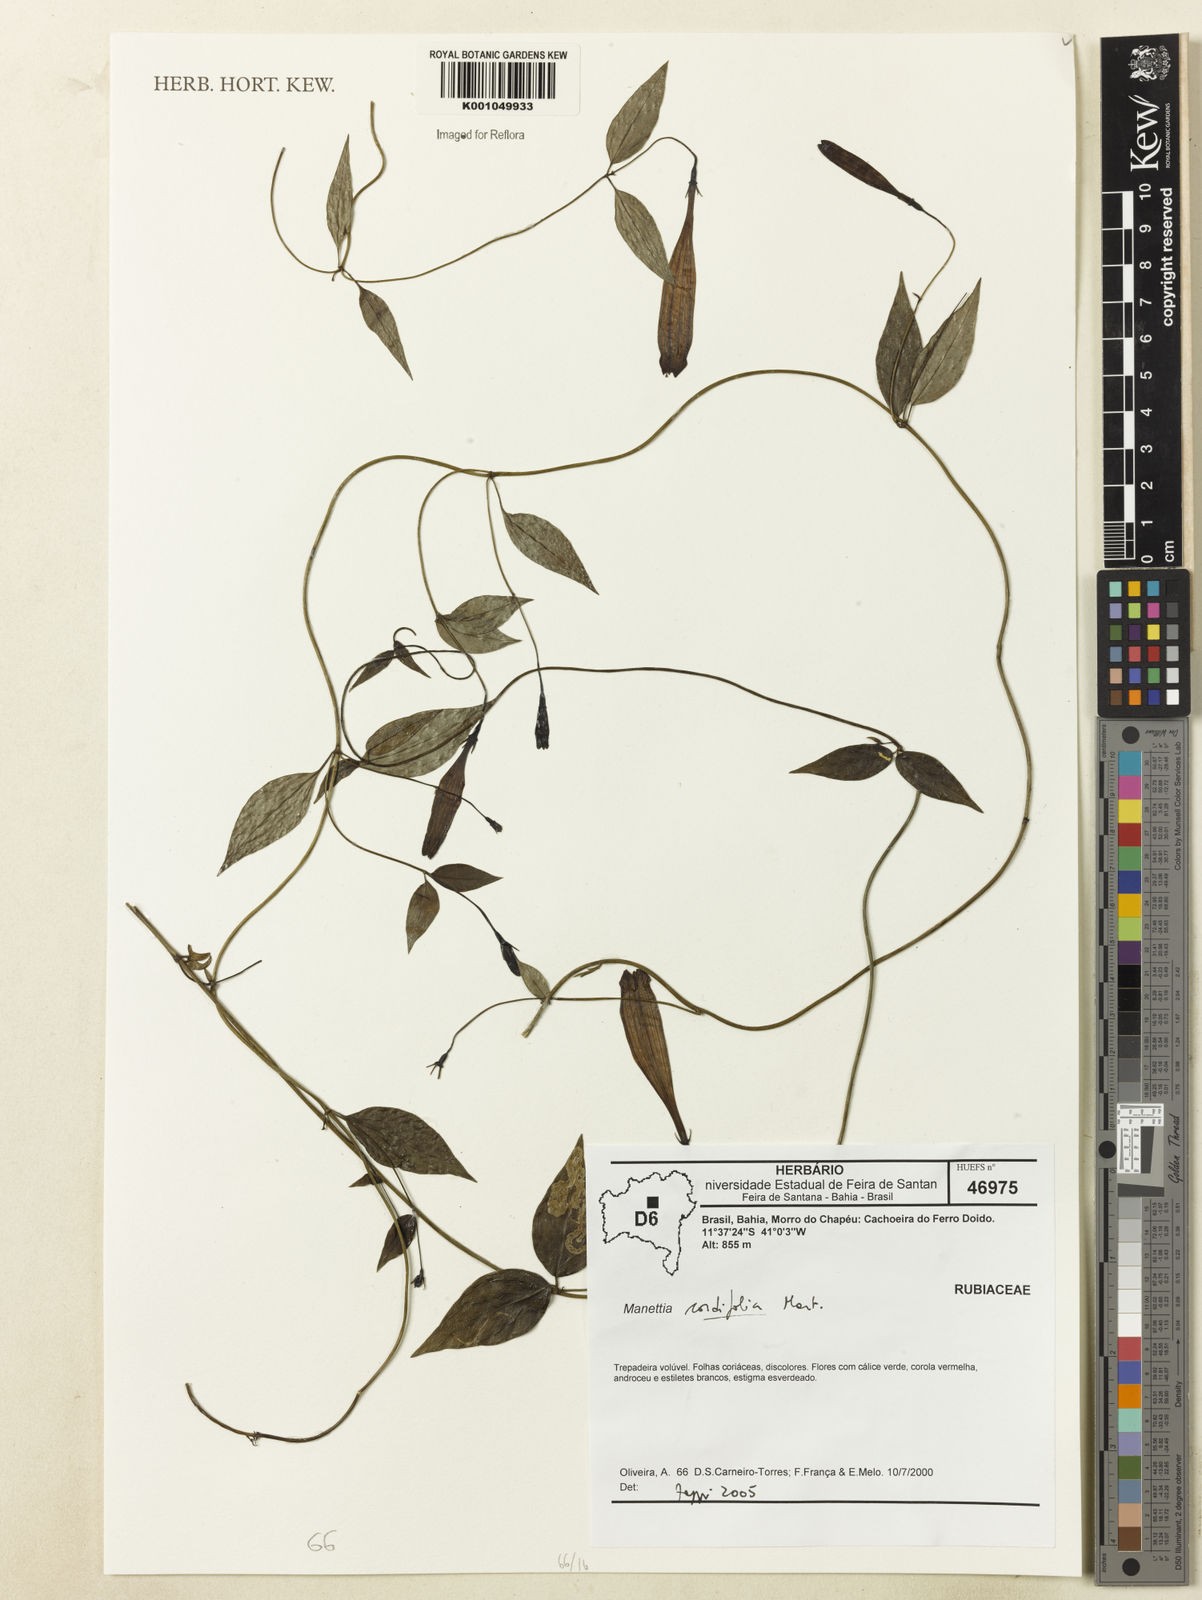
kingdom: Plantae
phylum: Tracheophyta
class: Magnoliopsida
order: Gentianales
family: Rubiaceae
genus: Manettia
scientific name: Manettia cordifolia
